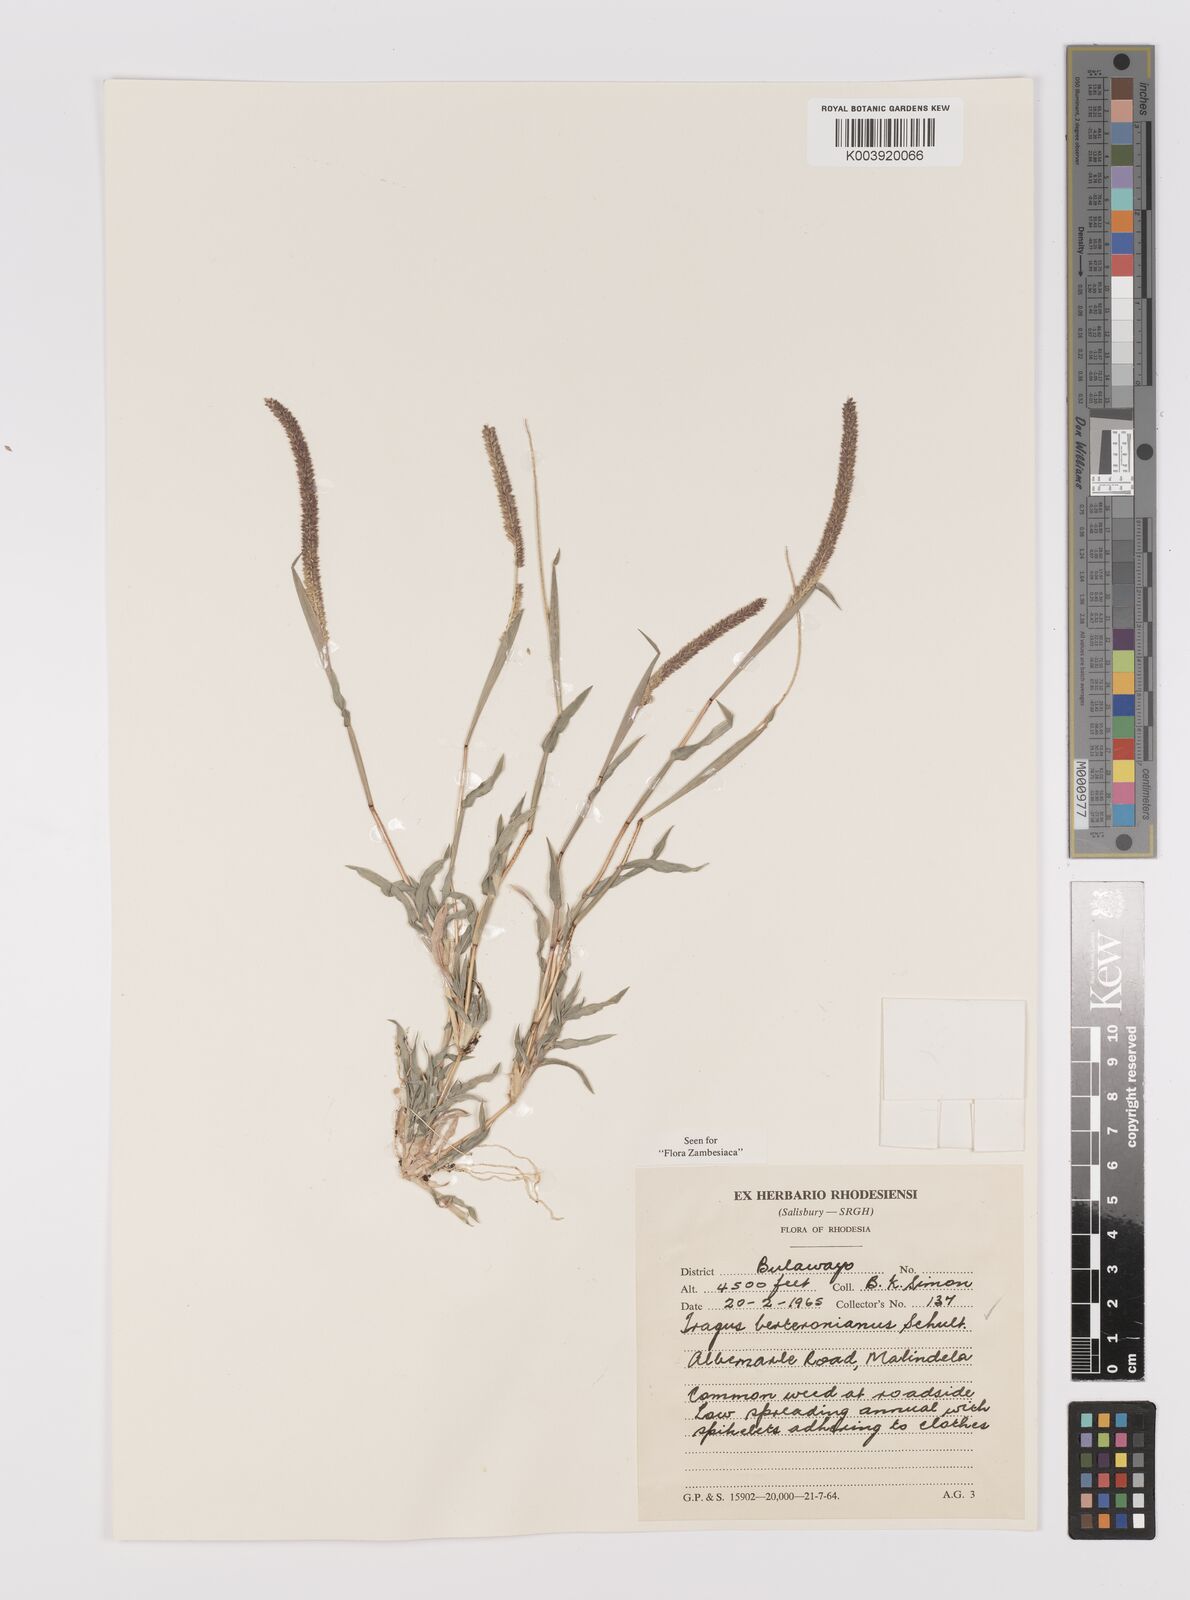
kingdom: Plantae
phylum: Tracheophyta
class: Liliopsida
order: Poales
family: Poaceae
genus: Tragus
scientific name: Tragus berteronianus
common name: African bur-grass
